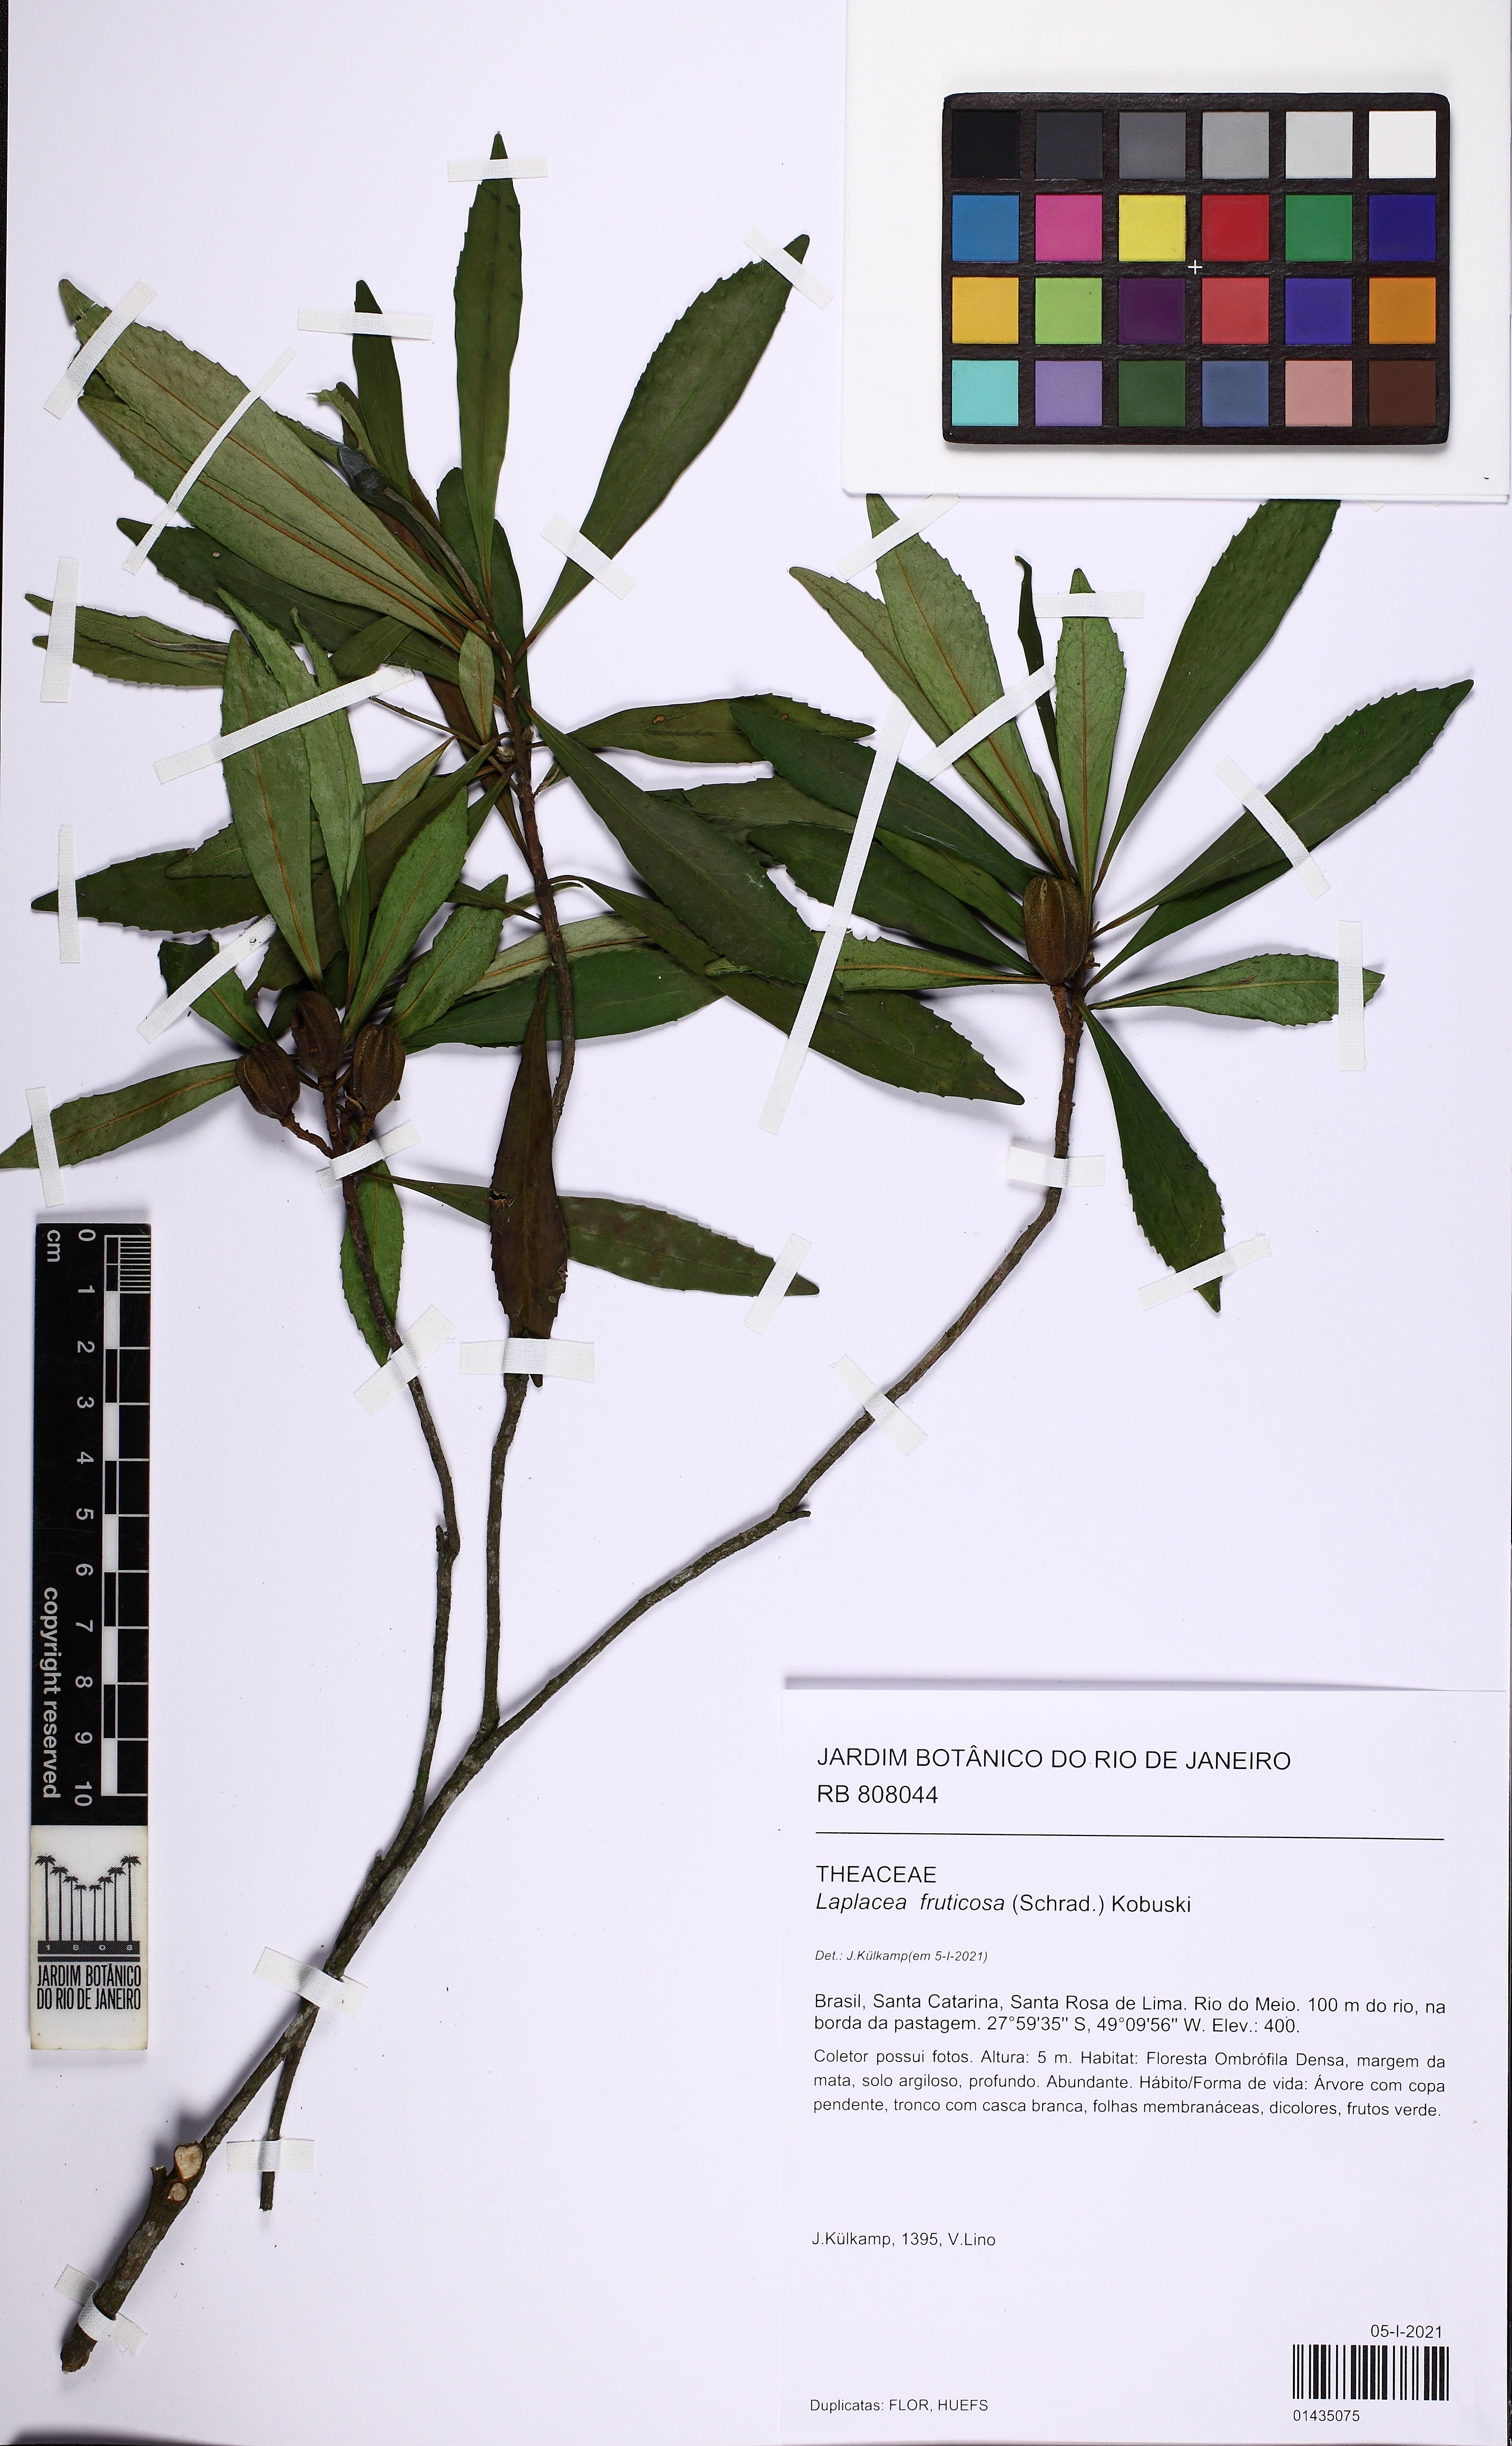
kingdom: Plantae
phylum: Tracheophyta
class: Magnoliopsida
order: Ericales
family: Theaceae
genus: Gordonia
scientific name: Gordonia fruticosa
